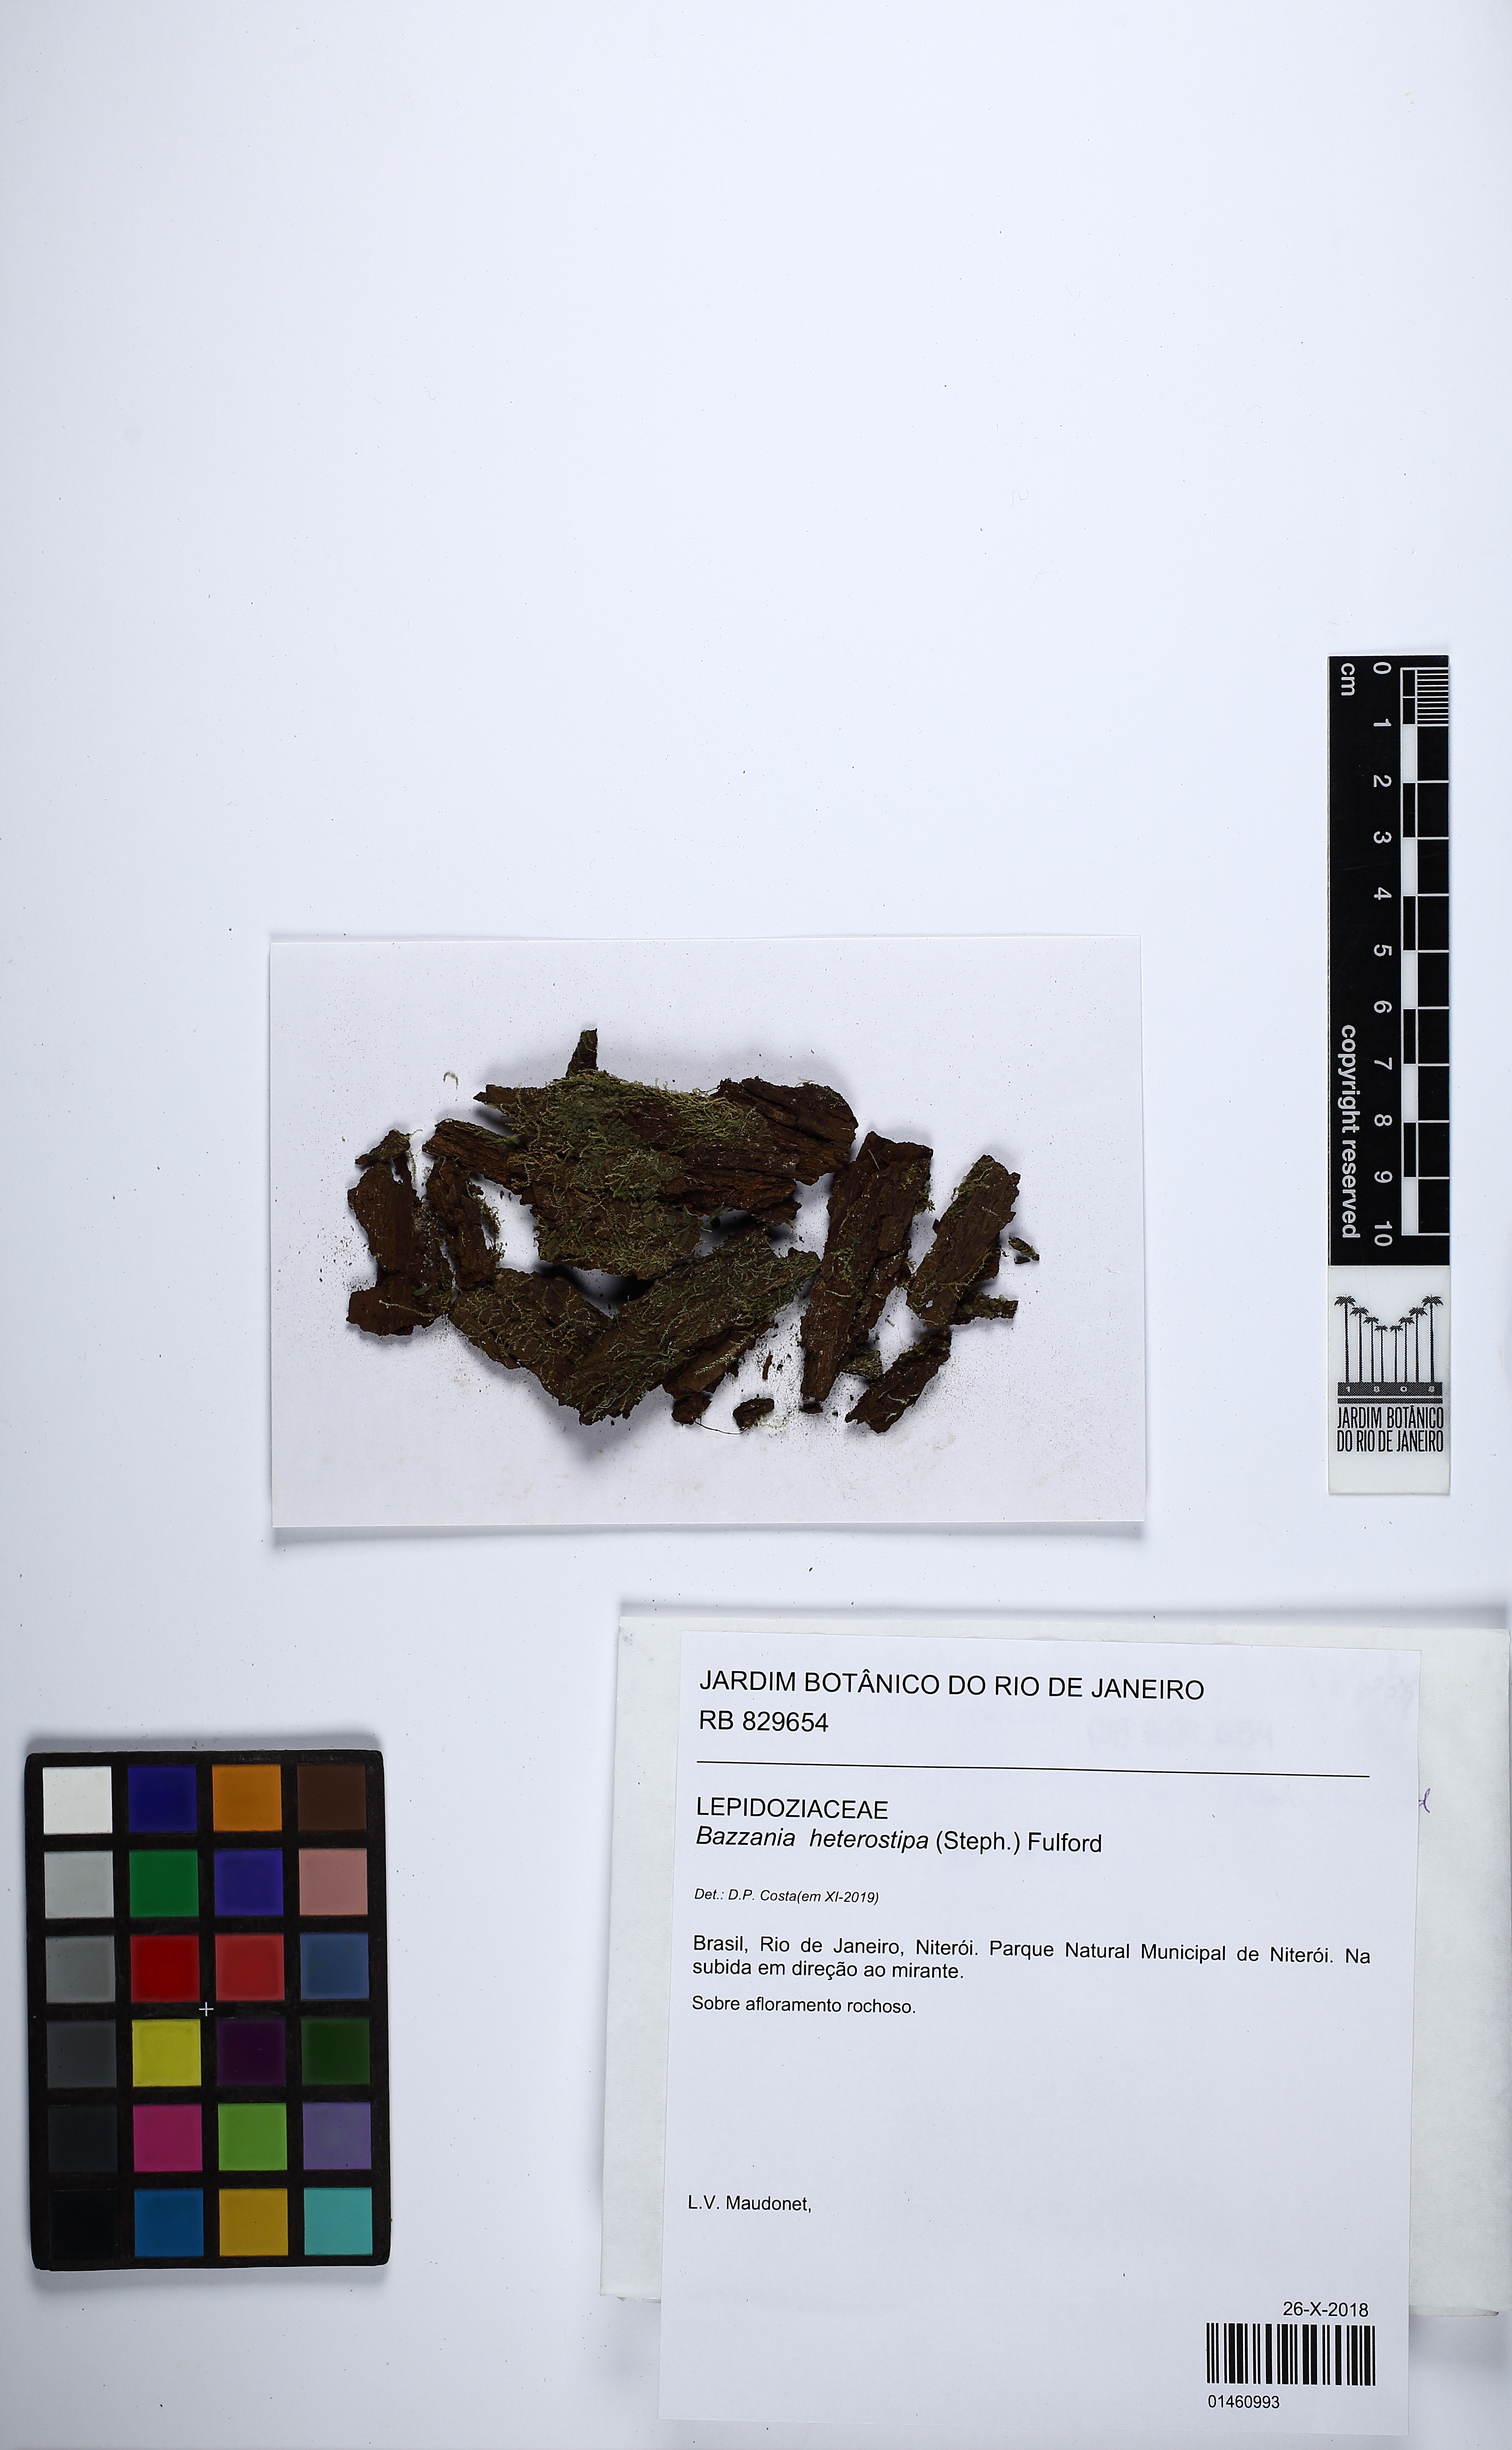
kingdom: Plantae
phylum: Marchantiophyta
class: Jungermanniopsida
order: Jungermanniales
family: Lepidoziaceae
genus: Bazzania
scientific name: Bazzania nitida
